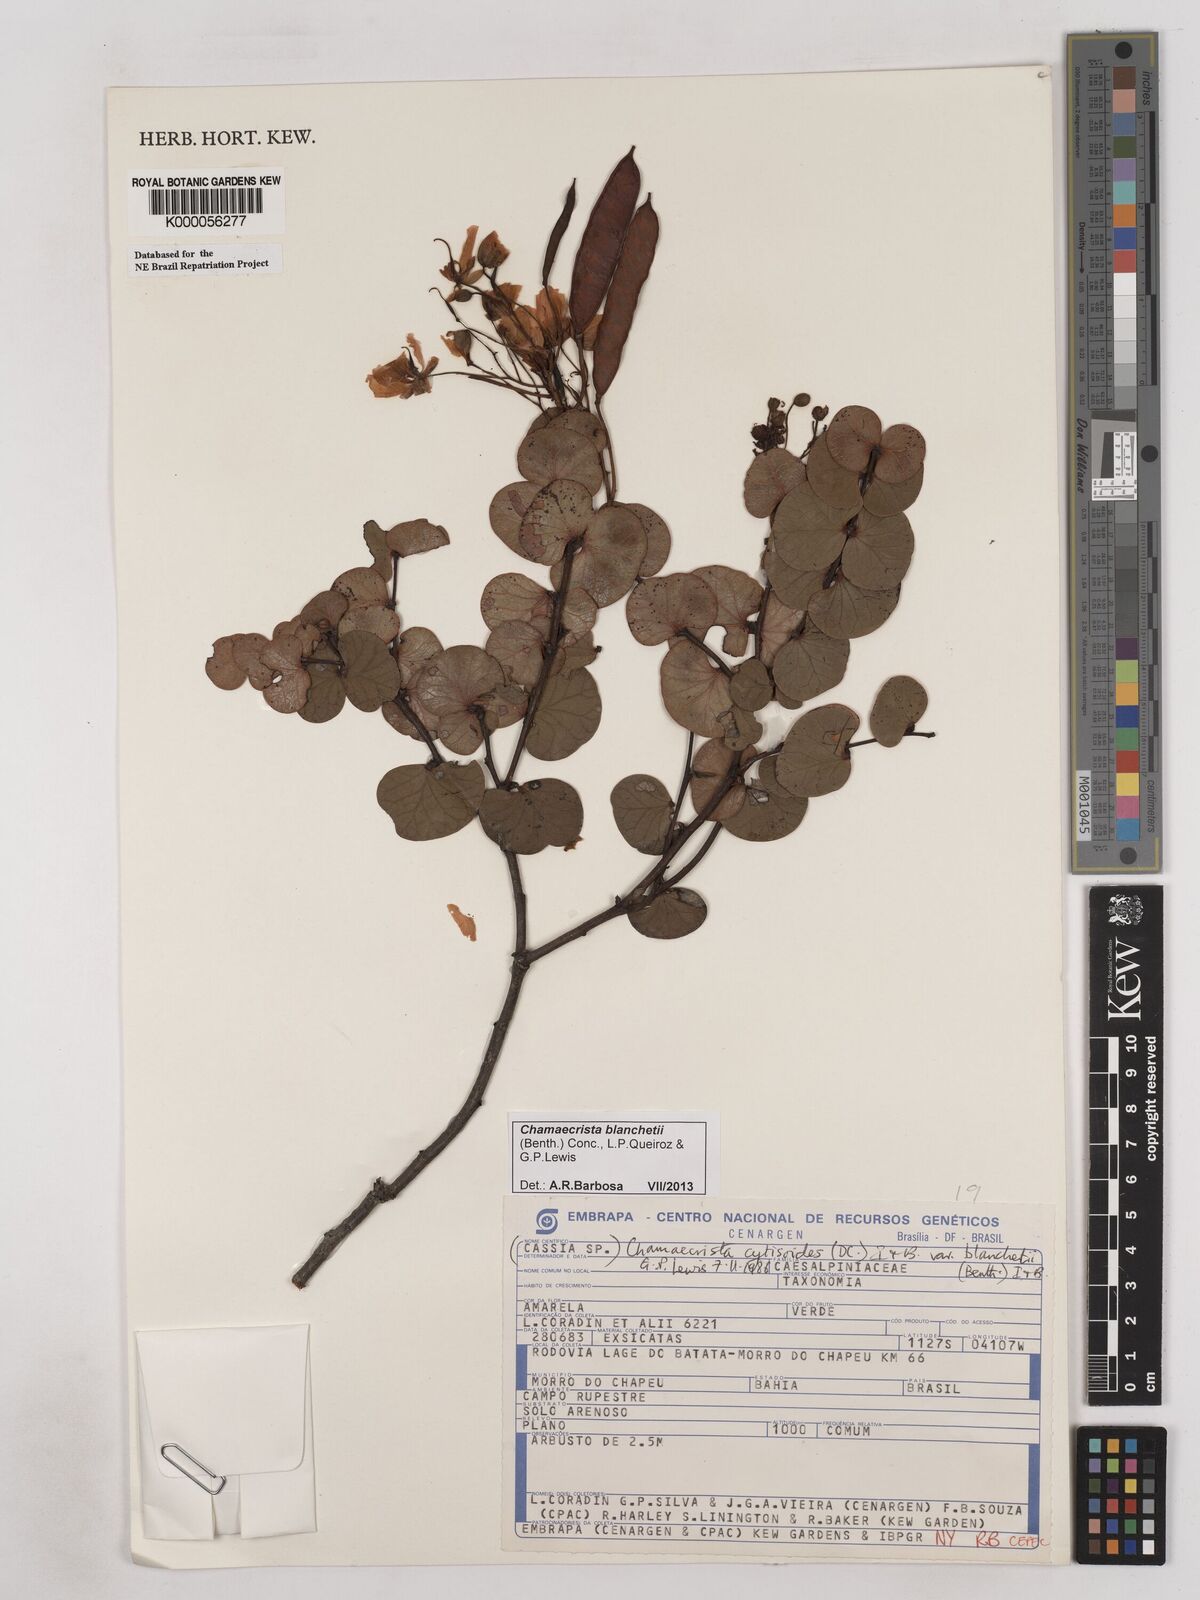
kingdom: Plantae
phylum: Tracheophyta
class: Magnoliopsida
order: Fabales
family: Fabaceae
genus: Chamaecrista
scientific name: Chamaecrista cytisoides
